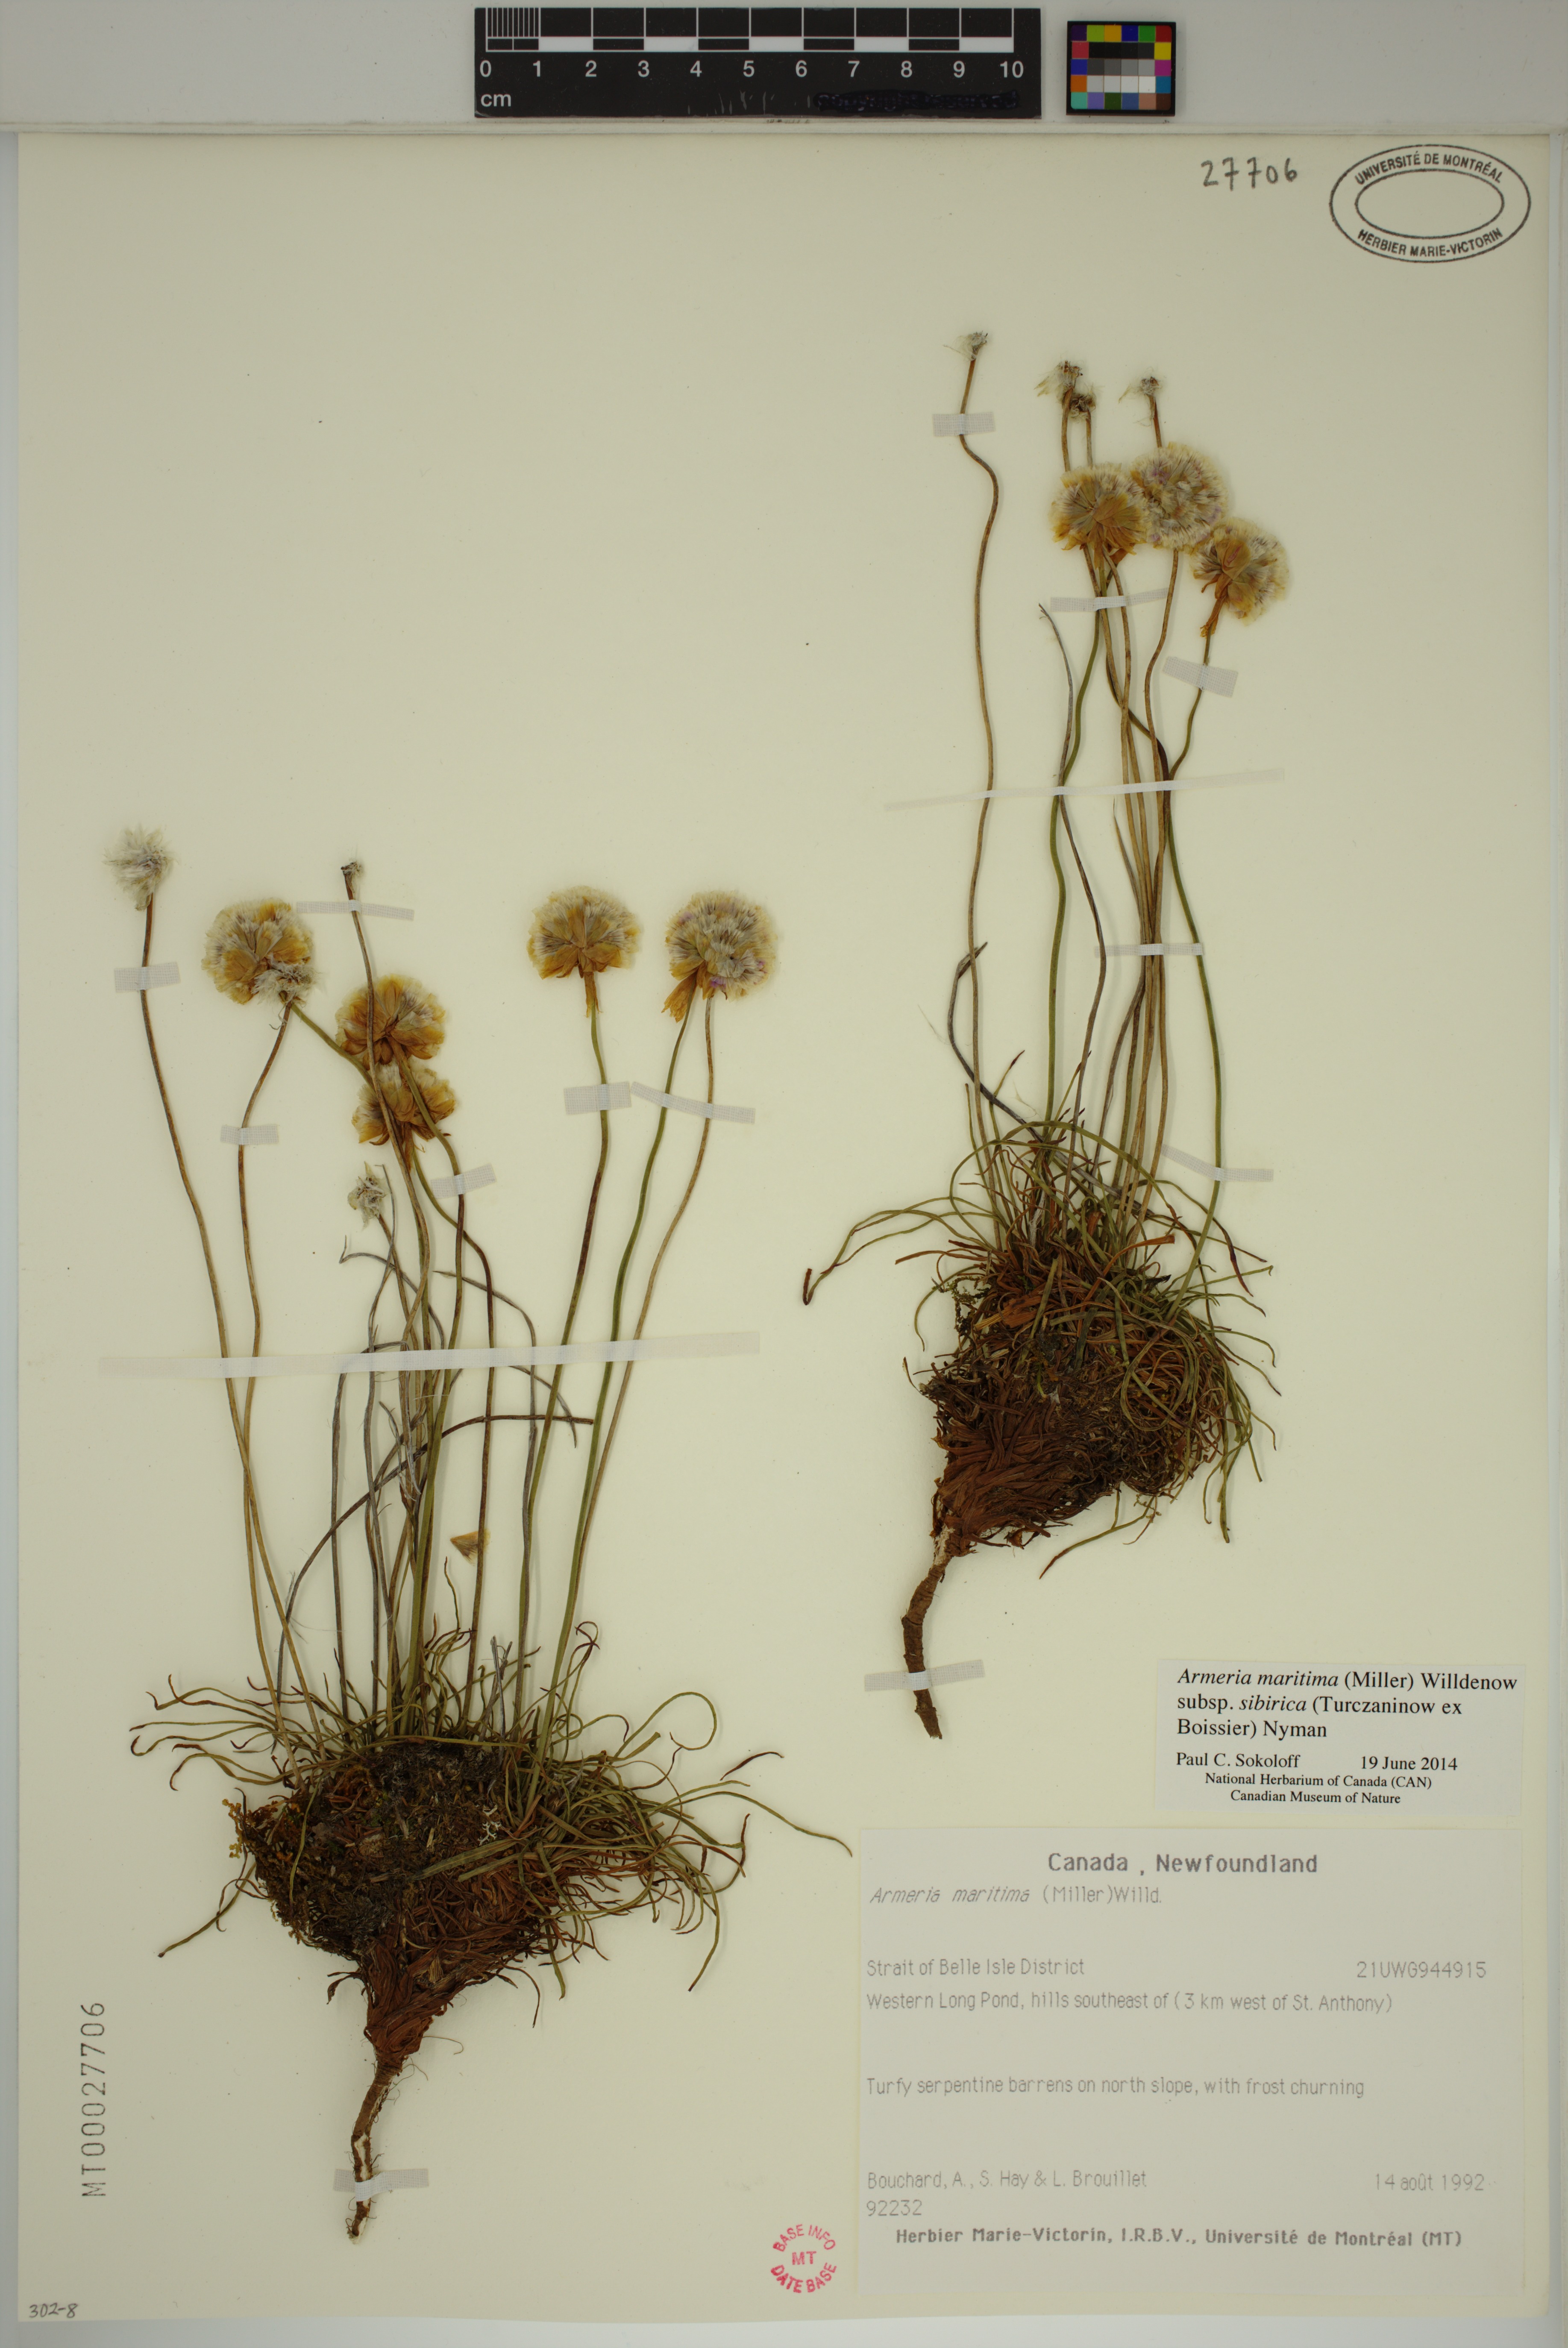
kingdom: Plantae
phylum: Tracheophyta
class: Magnoliopsida
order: Caryophyllales
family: Plumbaginaceae
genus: Armeria
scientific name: Armeria maritima
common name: Thrift
